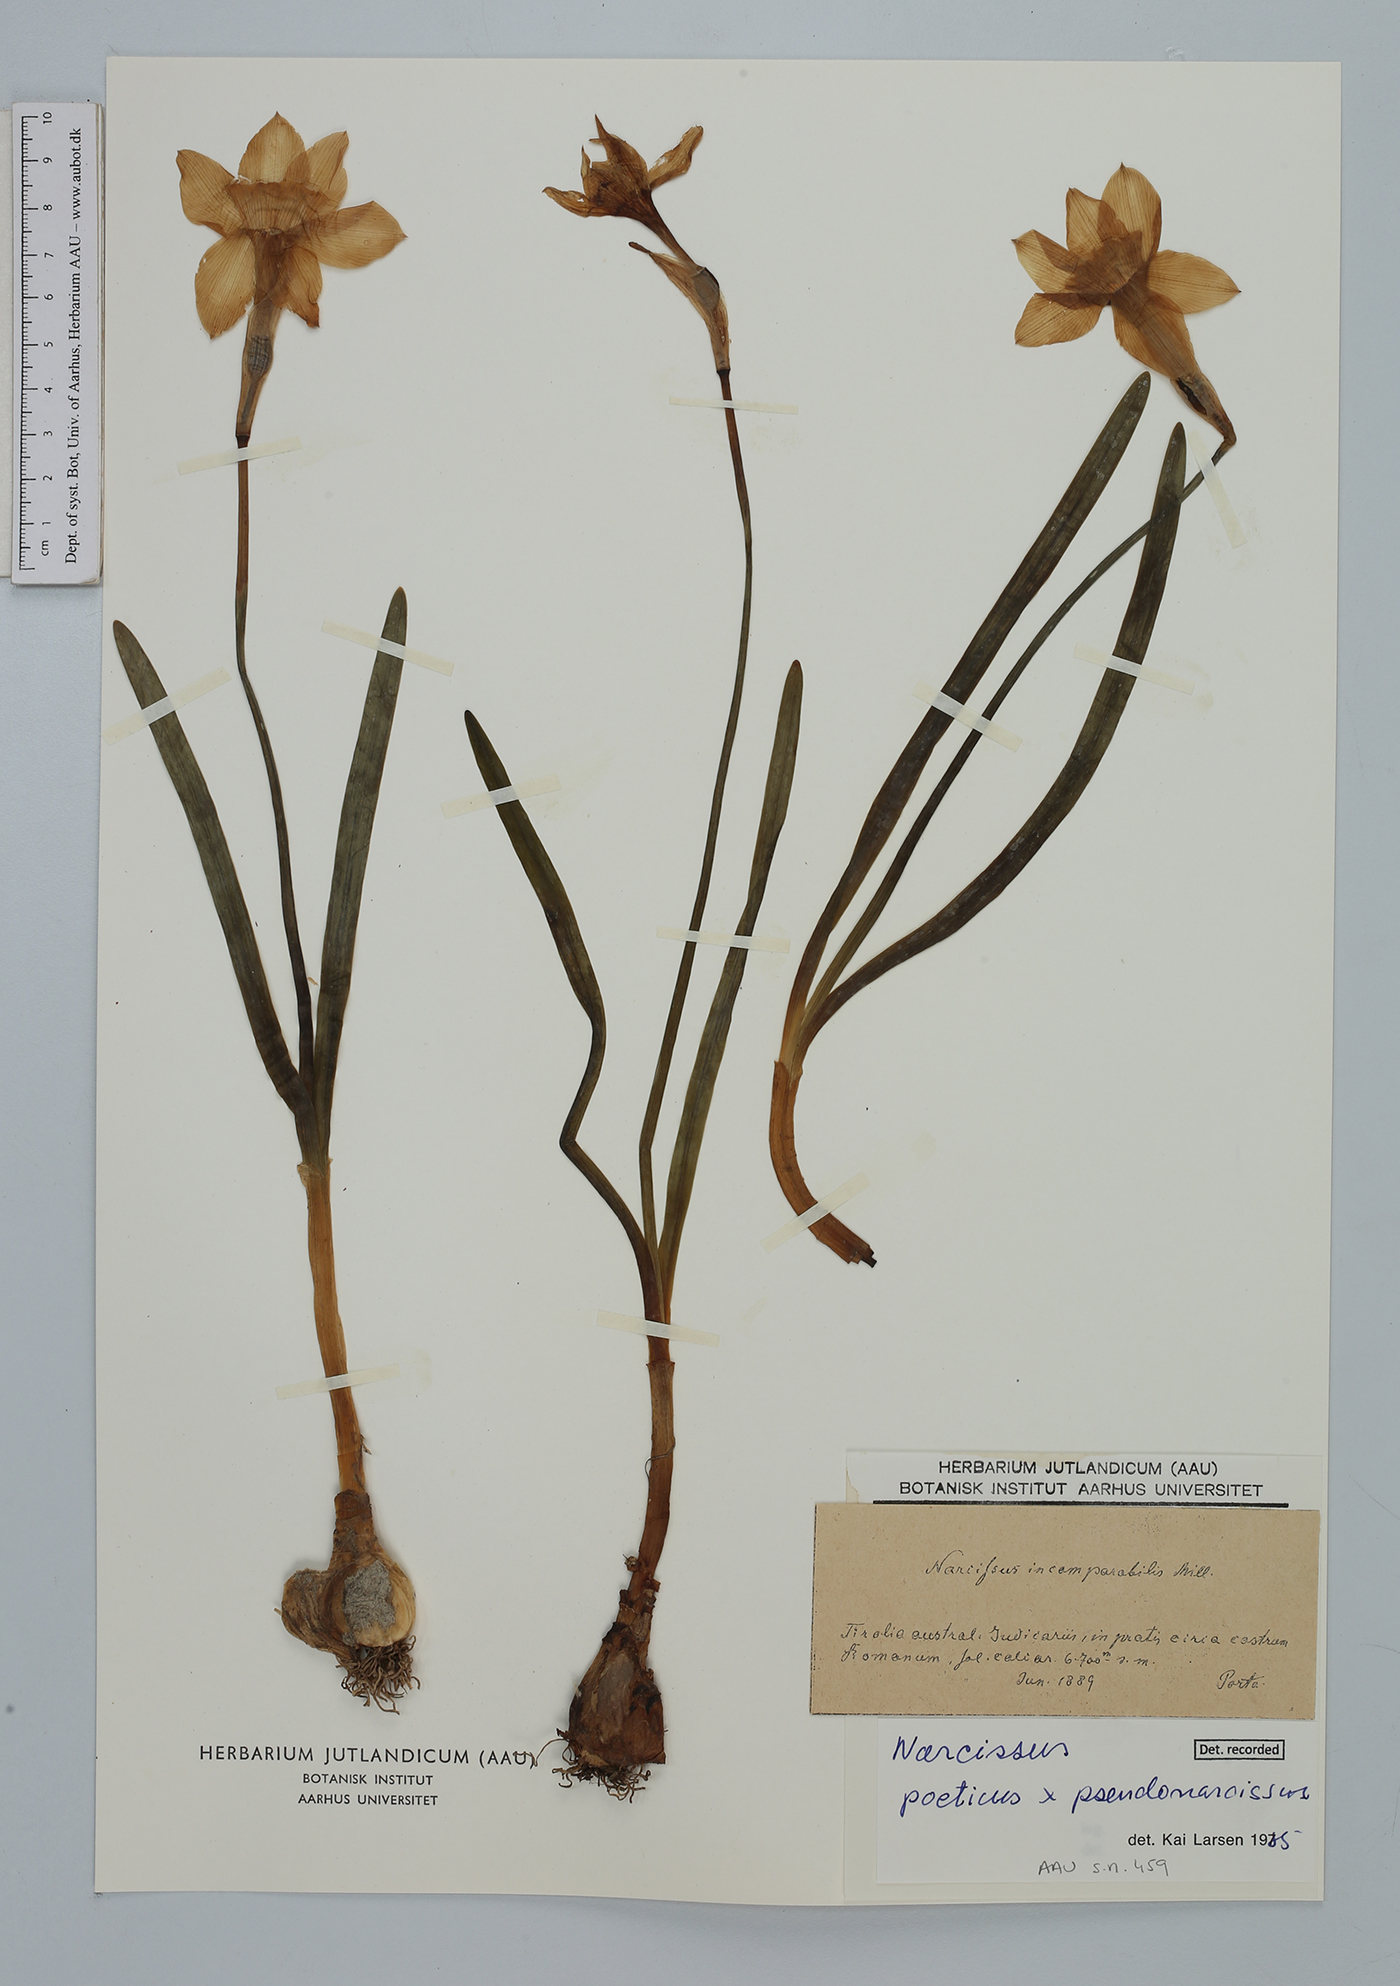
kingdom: Plantae
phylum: Tracheophyta
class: Liliopsida
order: Asparagales
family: Amaryllidaceae
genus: Narcissus
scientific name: Narcissus
